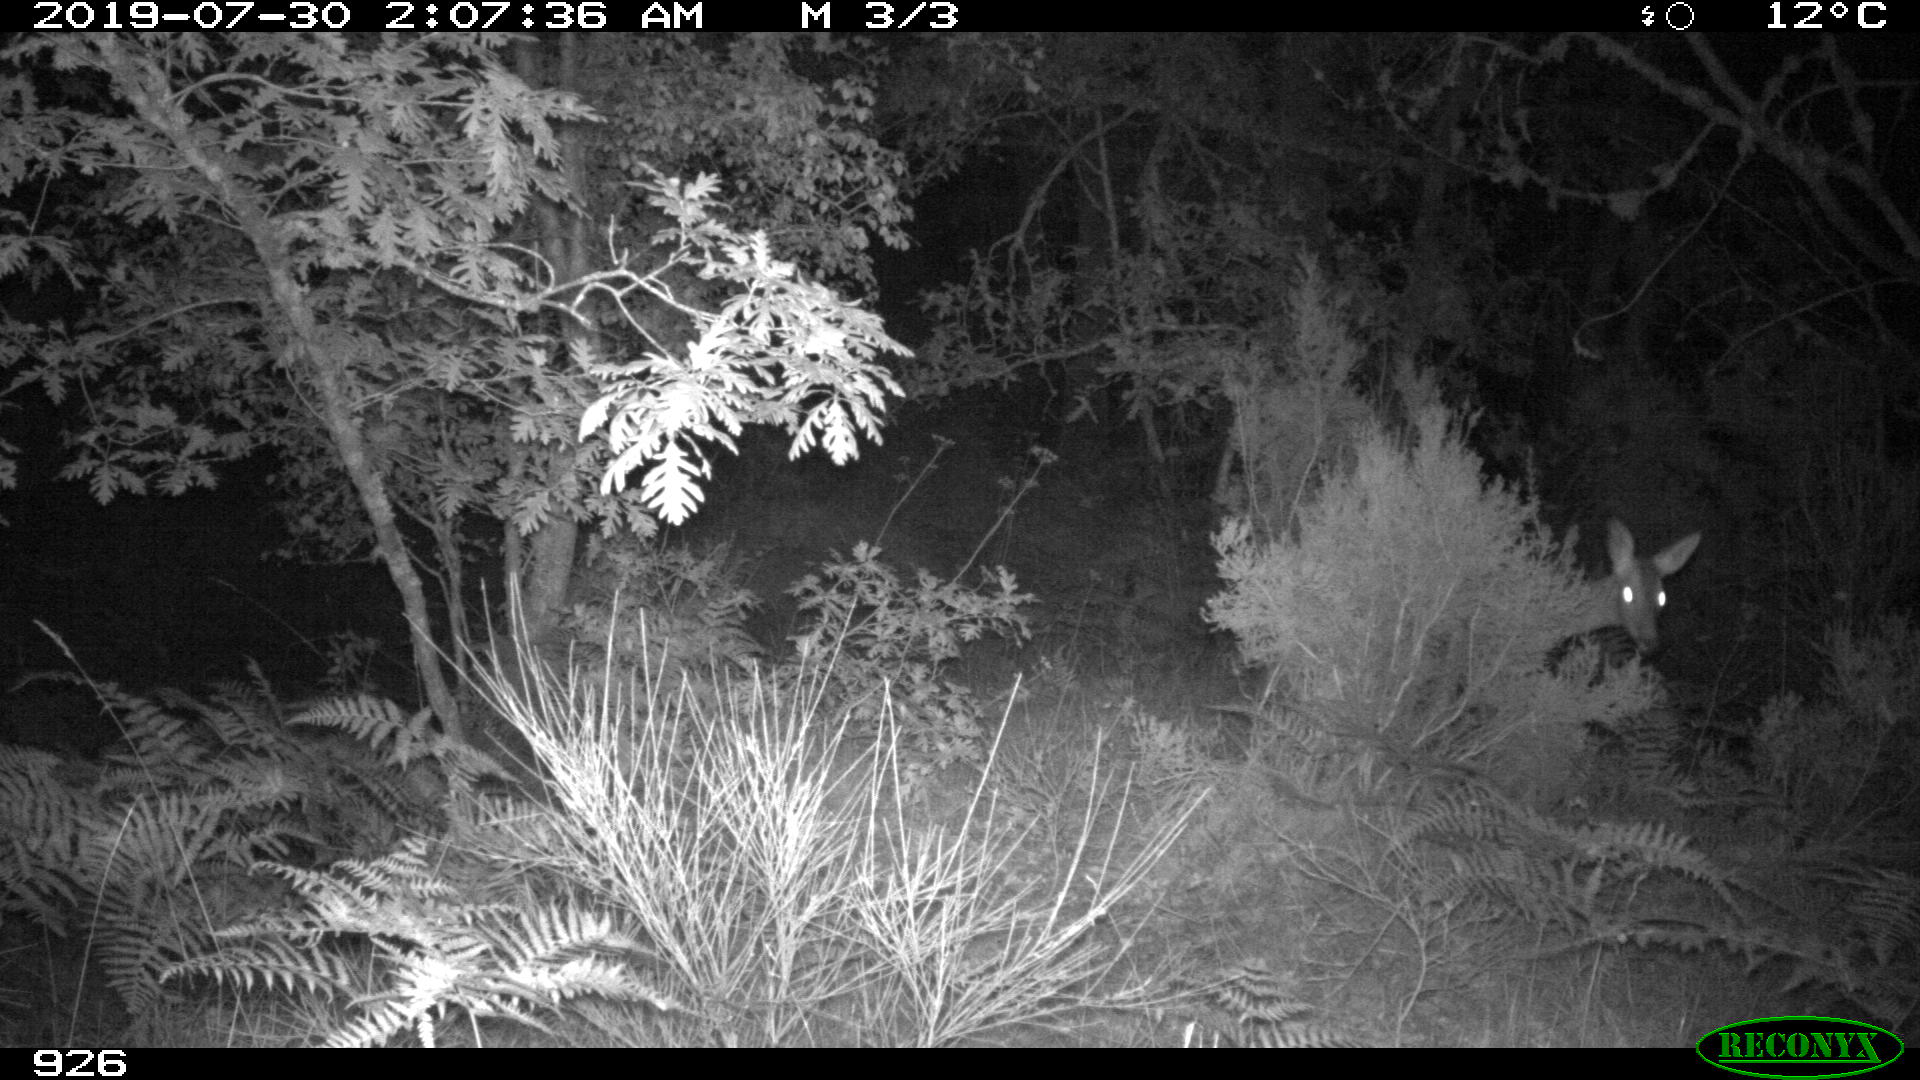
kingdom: Animalia
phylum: Chordata
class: Mammalia
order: Artiodactyla
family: Cervidae
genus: Capreolus
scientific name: Capreolus capreolus
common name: Western roe deer
